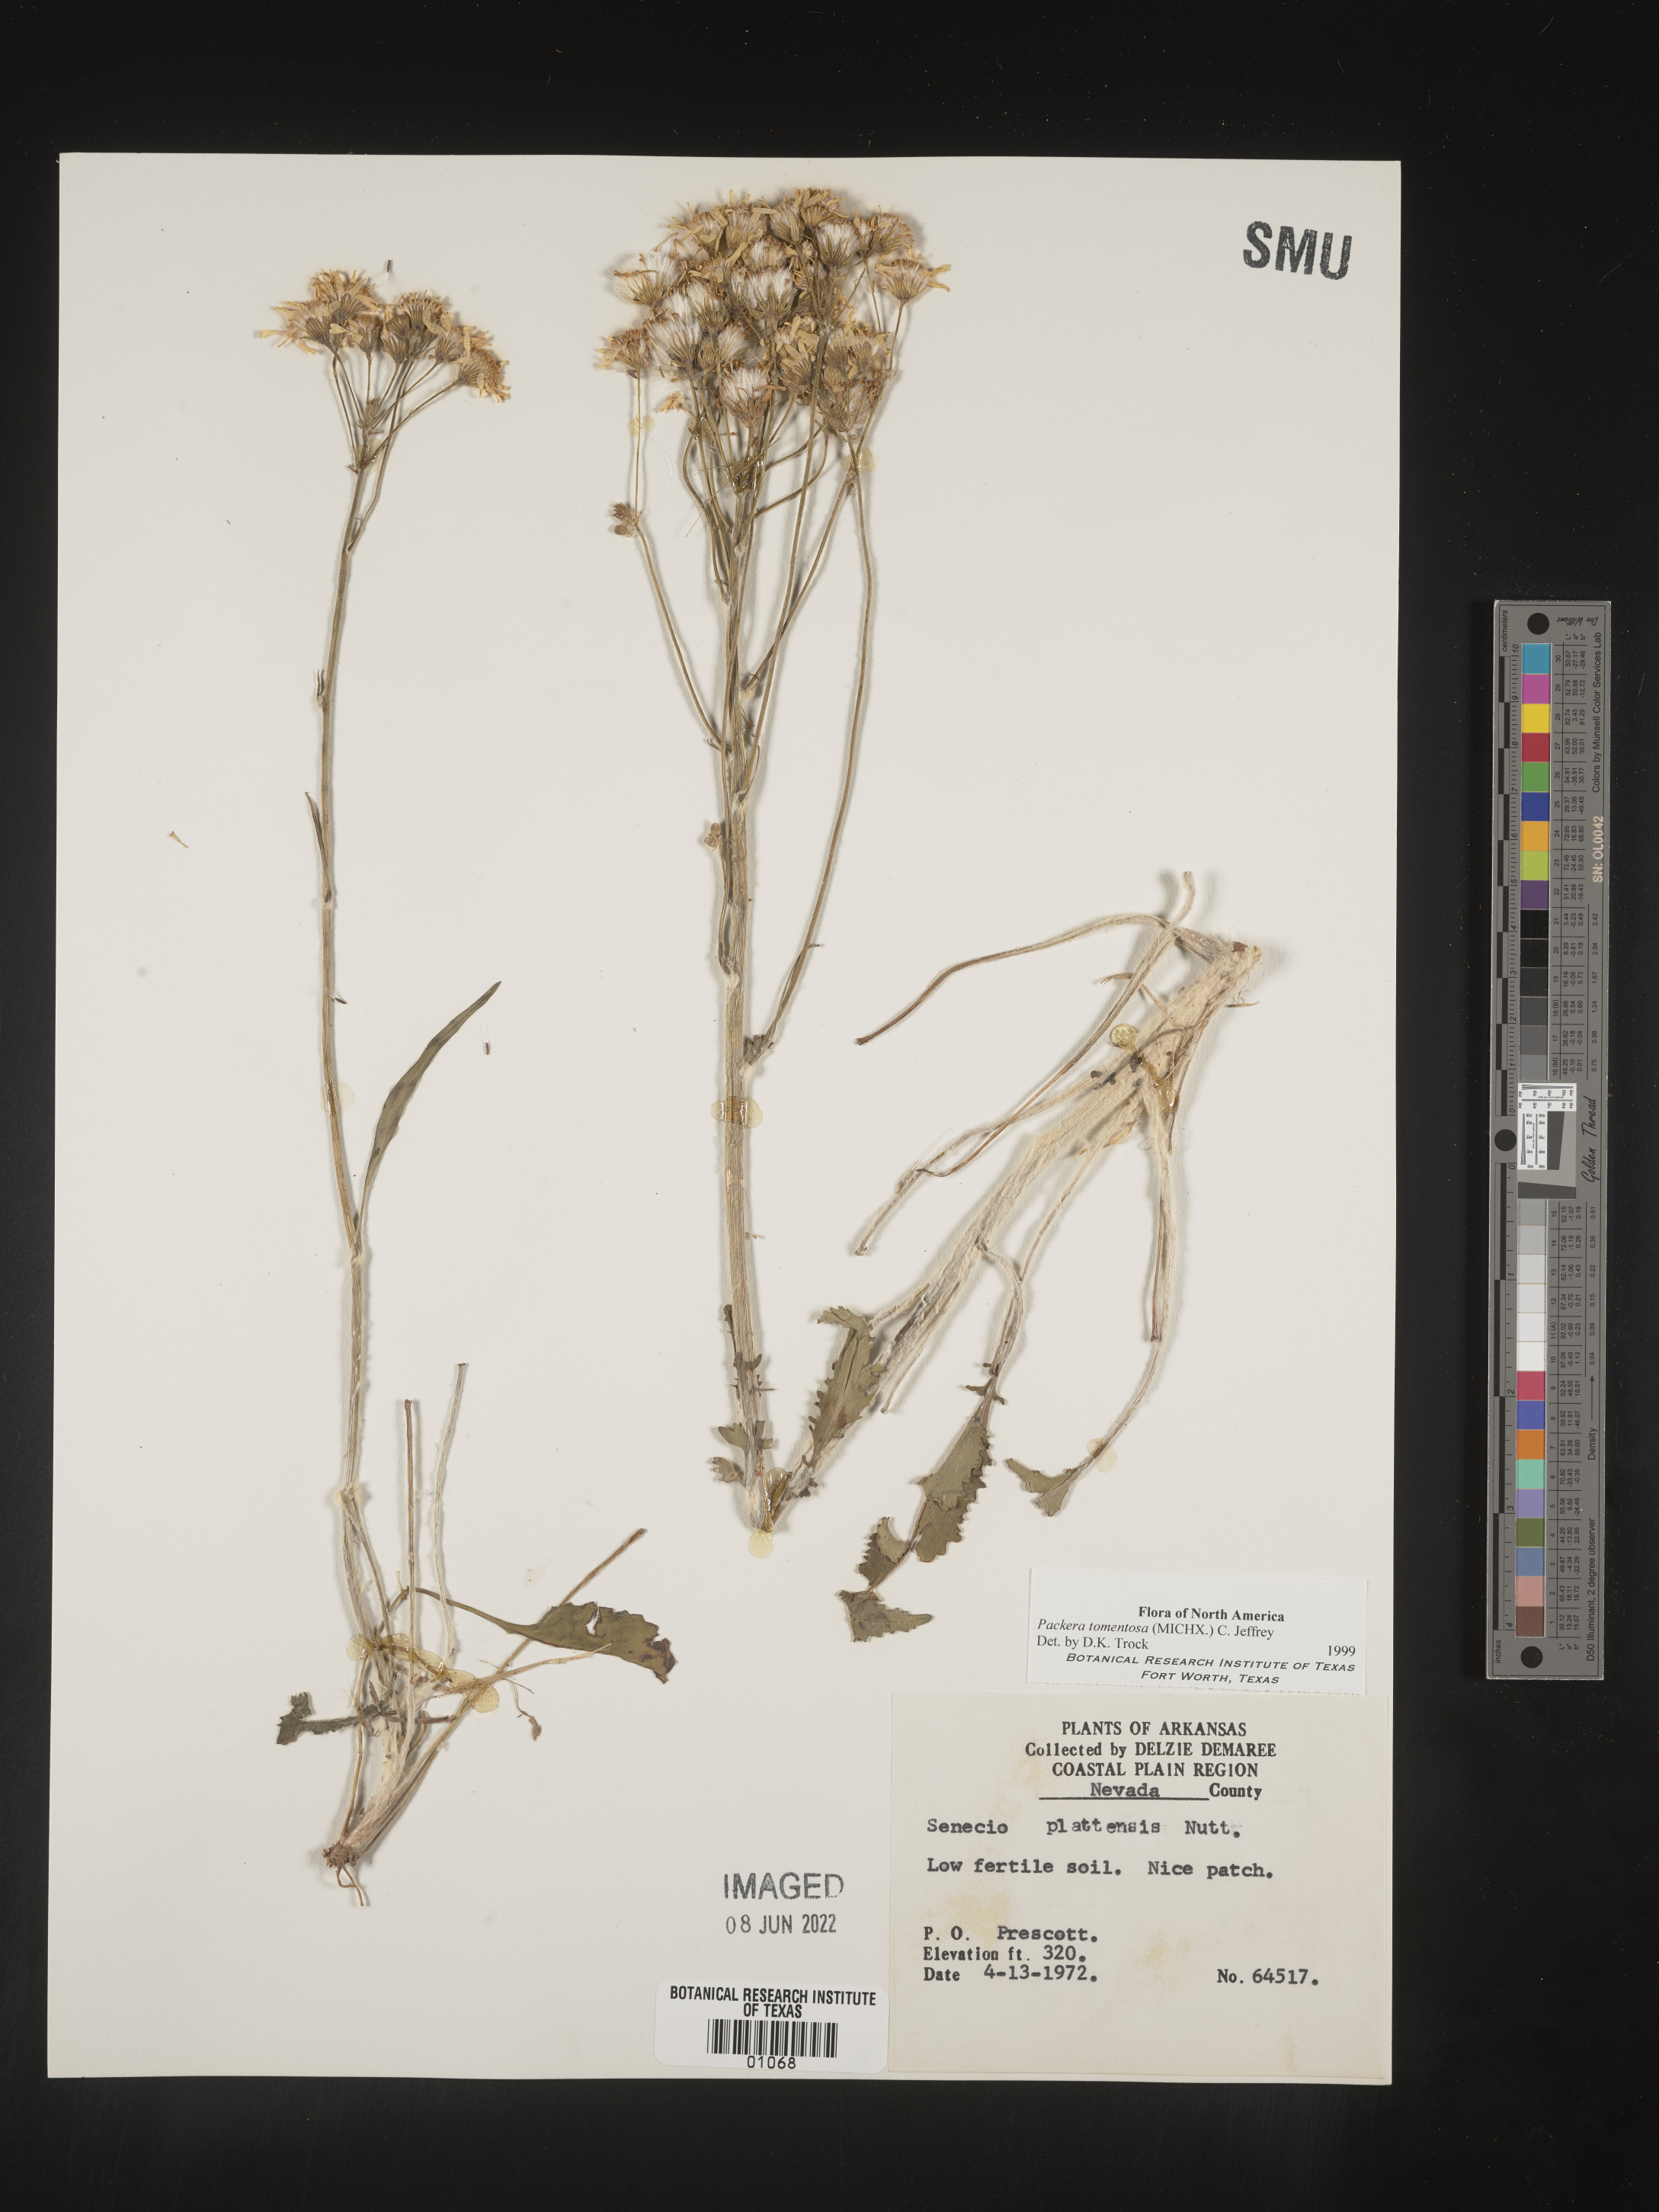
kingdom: Plantae
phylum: Tracheophyta
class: Magnoliopsida
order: Asterales
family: Asteraceae
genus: Packera
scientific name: Packera dubia
